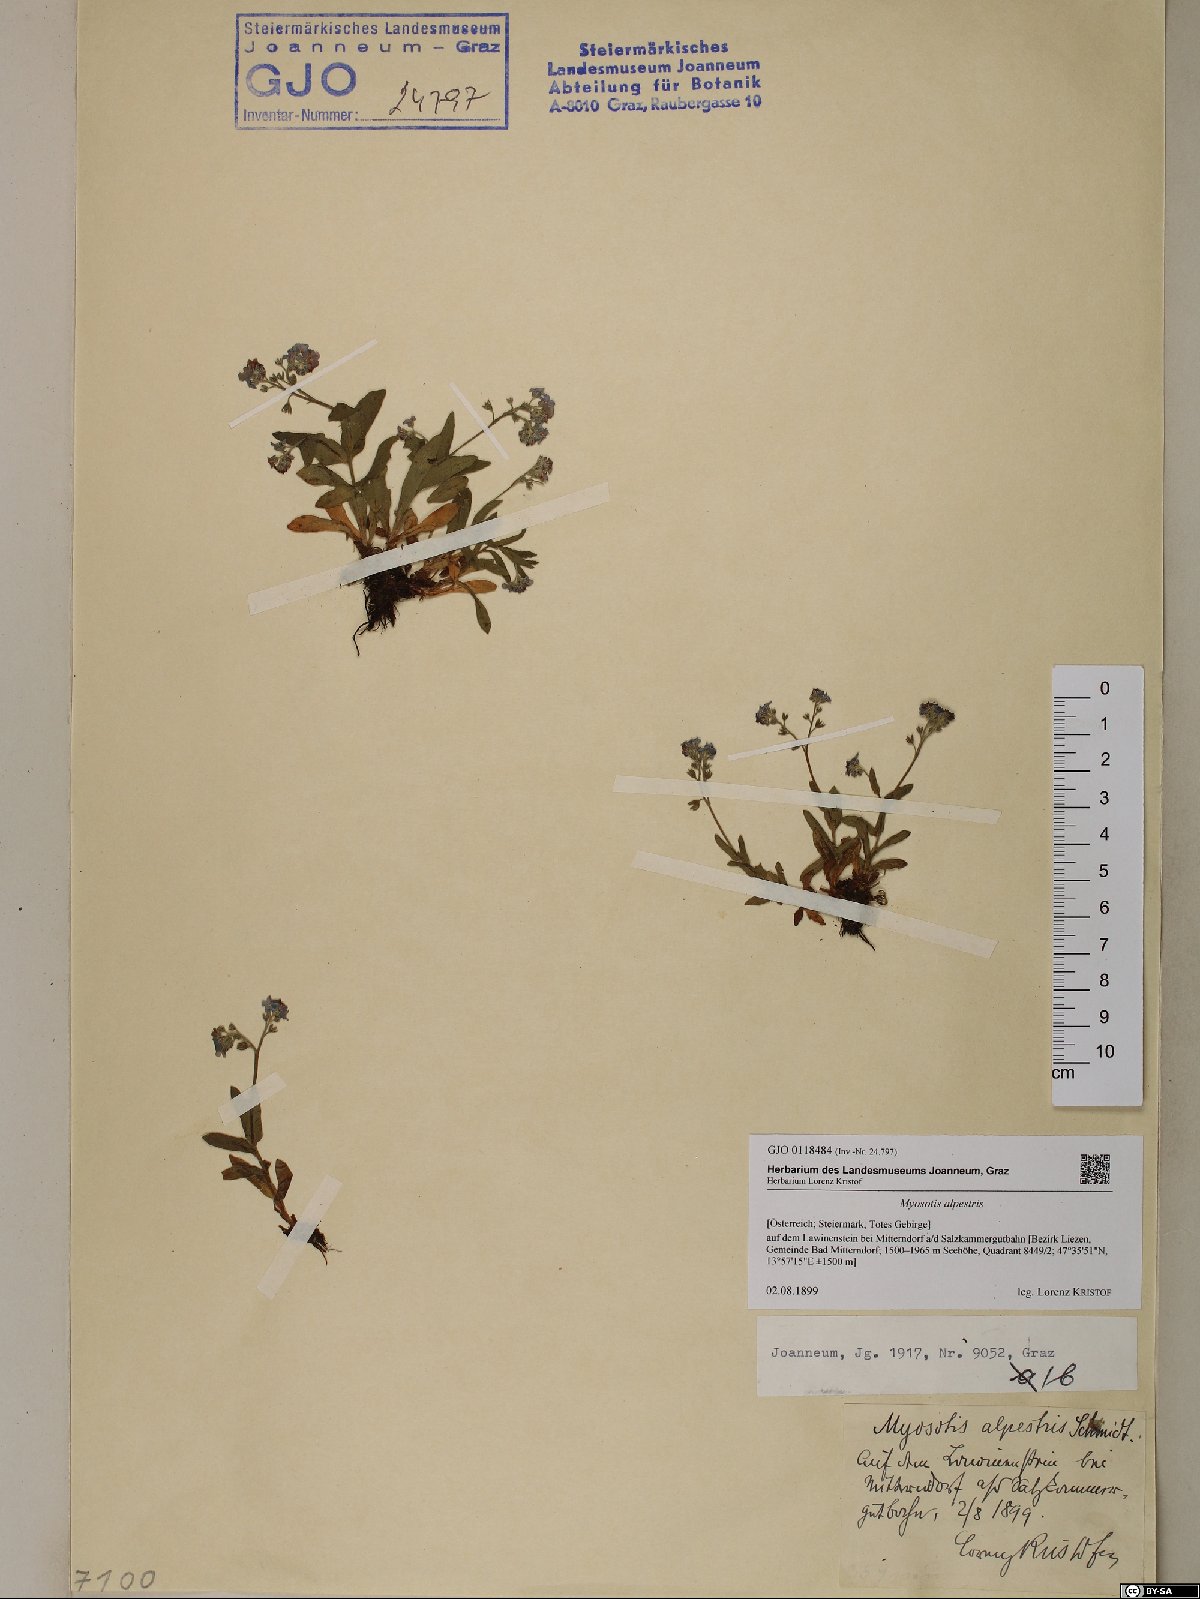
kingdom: Plantae
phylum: Tracheophyta
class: Magnoliopsida
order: Boraginales
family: Boraginaceae
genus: Myosotis
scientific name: Myosotis alpestris
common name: Alpine forget-me-not
